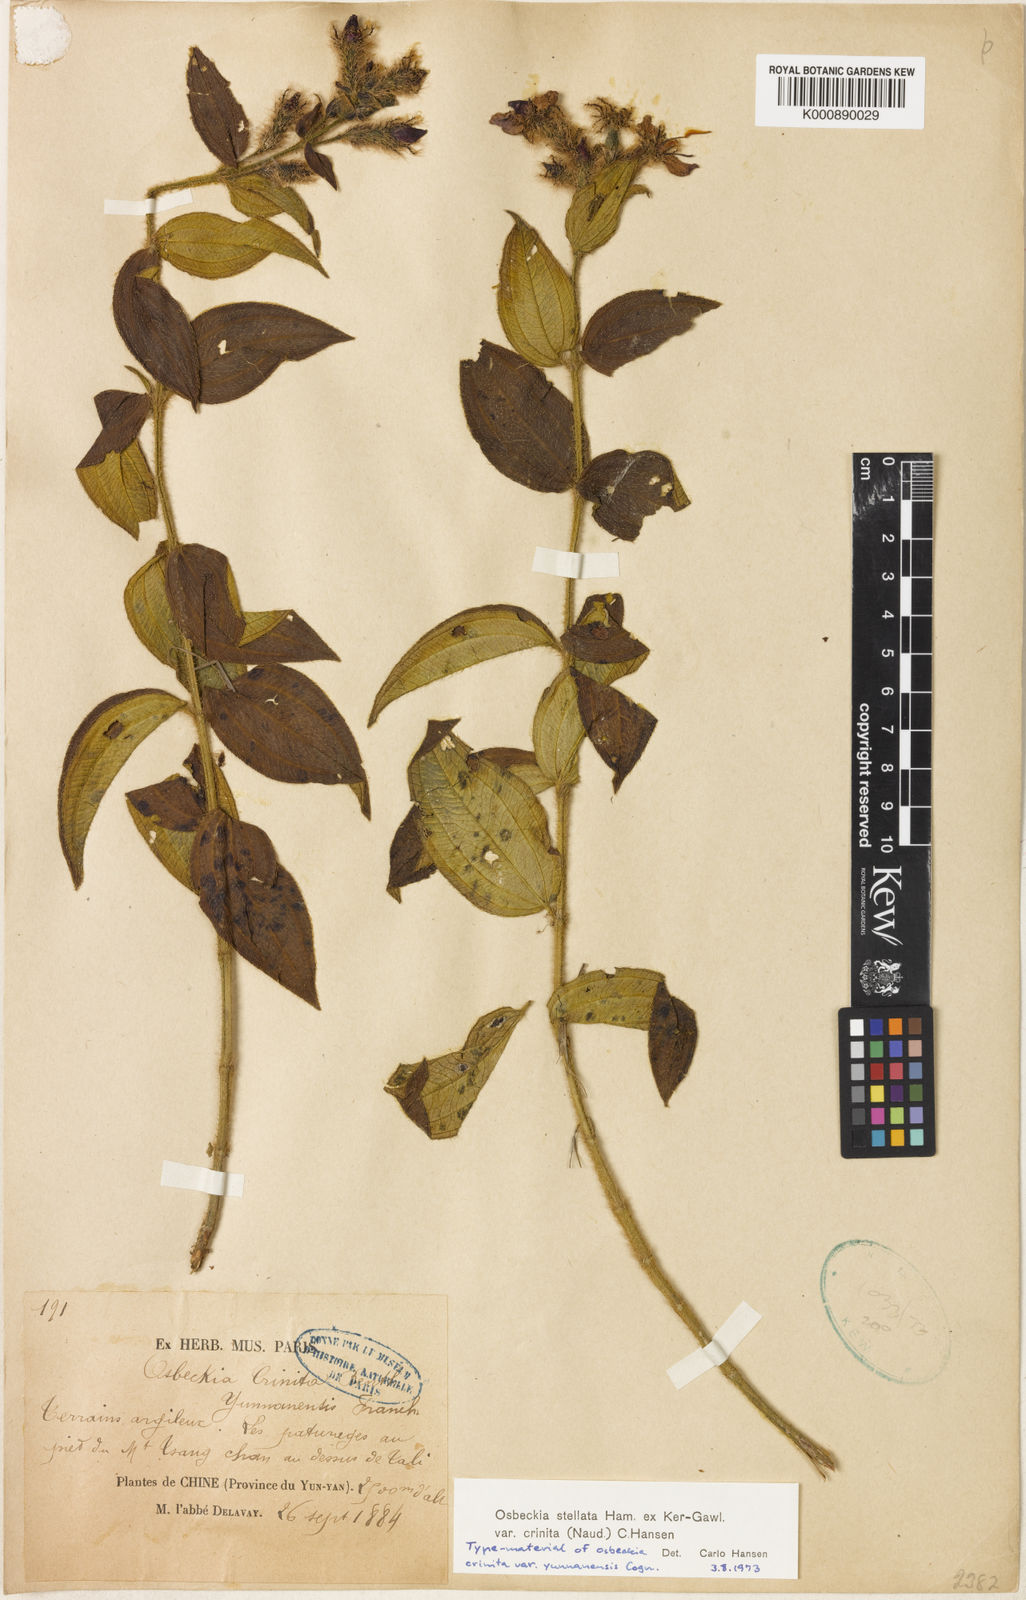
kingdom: Plantae
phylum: Tracheophyta
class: Magnoliopsida
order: Myrtales
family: Melastomataceae
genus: Osbeckia
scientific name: Osbeckia crinita
